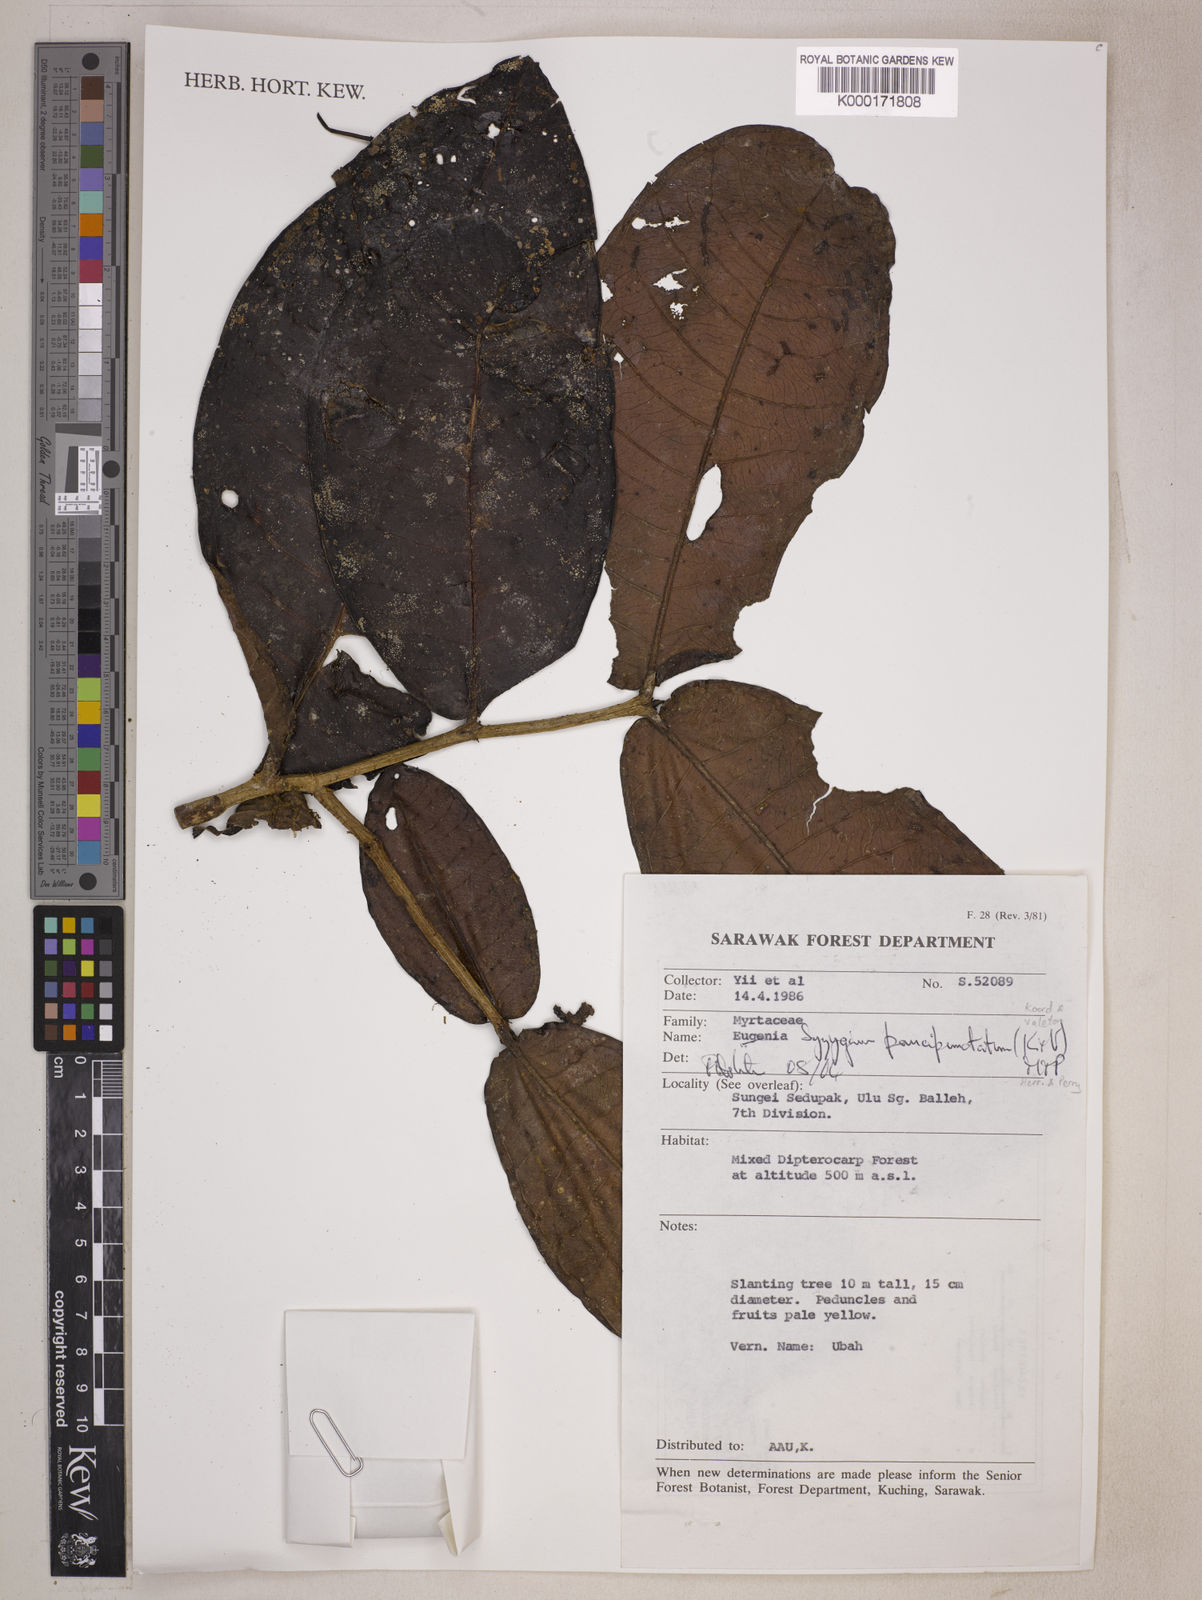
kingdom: Plantae
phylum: Tracheophyta
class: Magnoliopsida
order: Myrtales
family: Myrtaceae
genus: Syzygium
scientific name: Syzygium paucipunctatum
